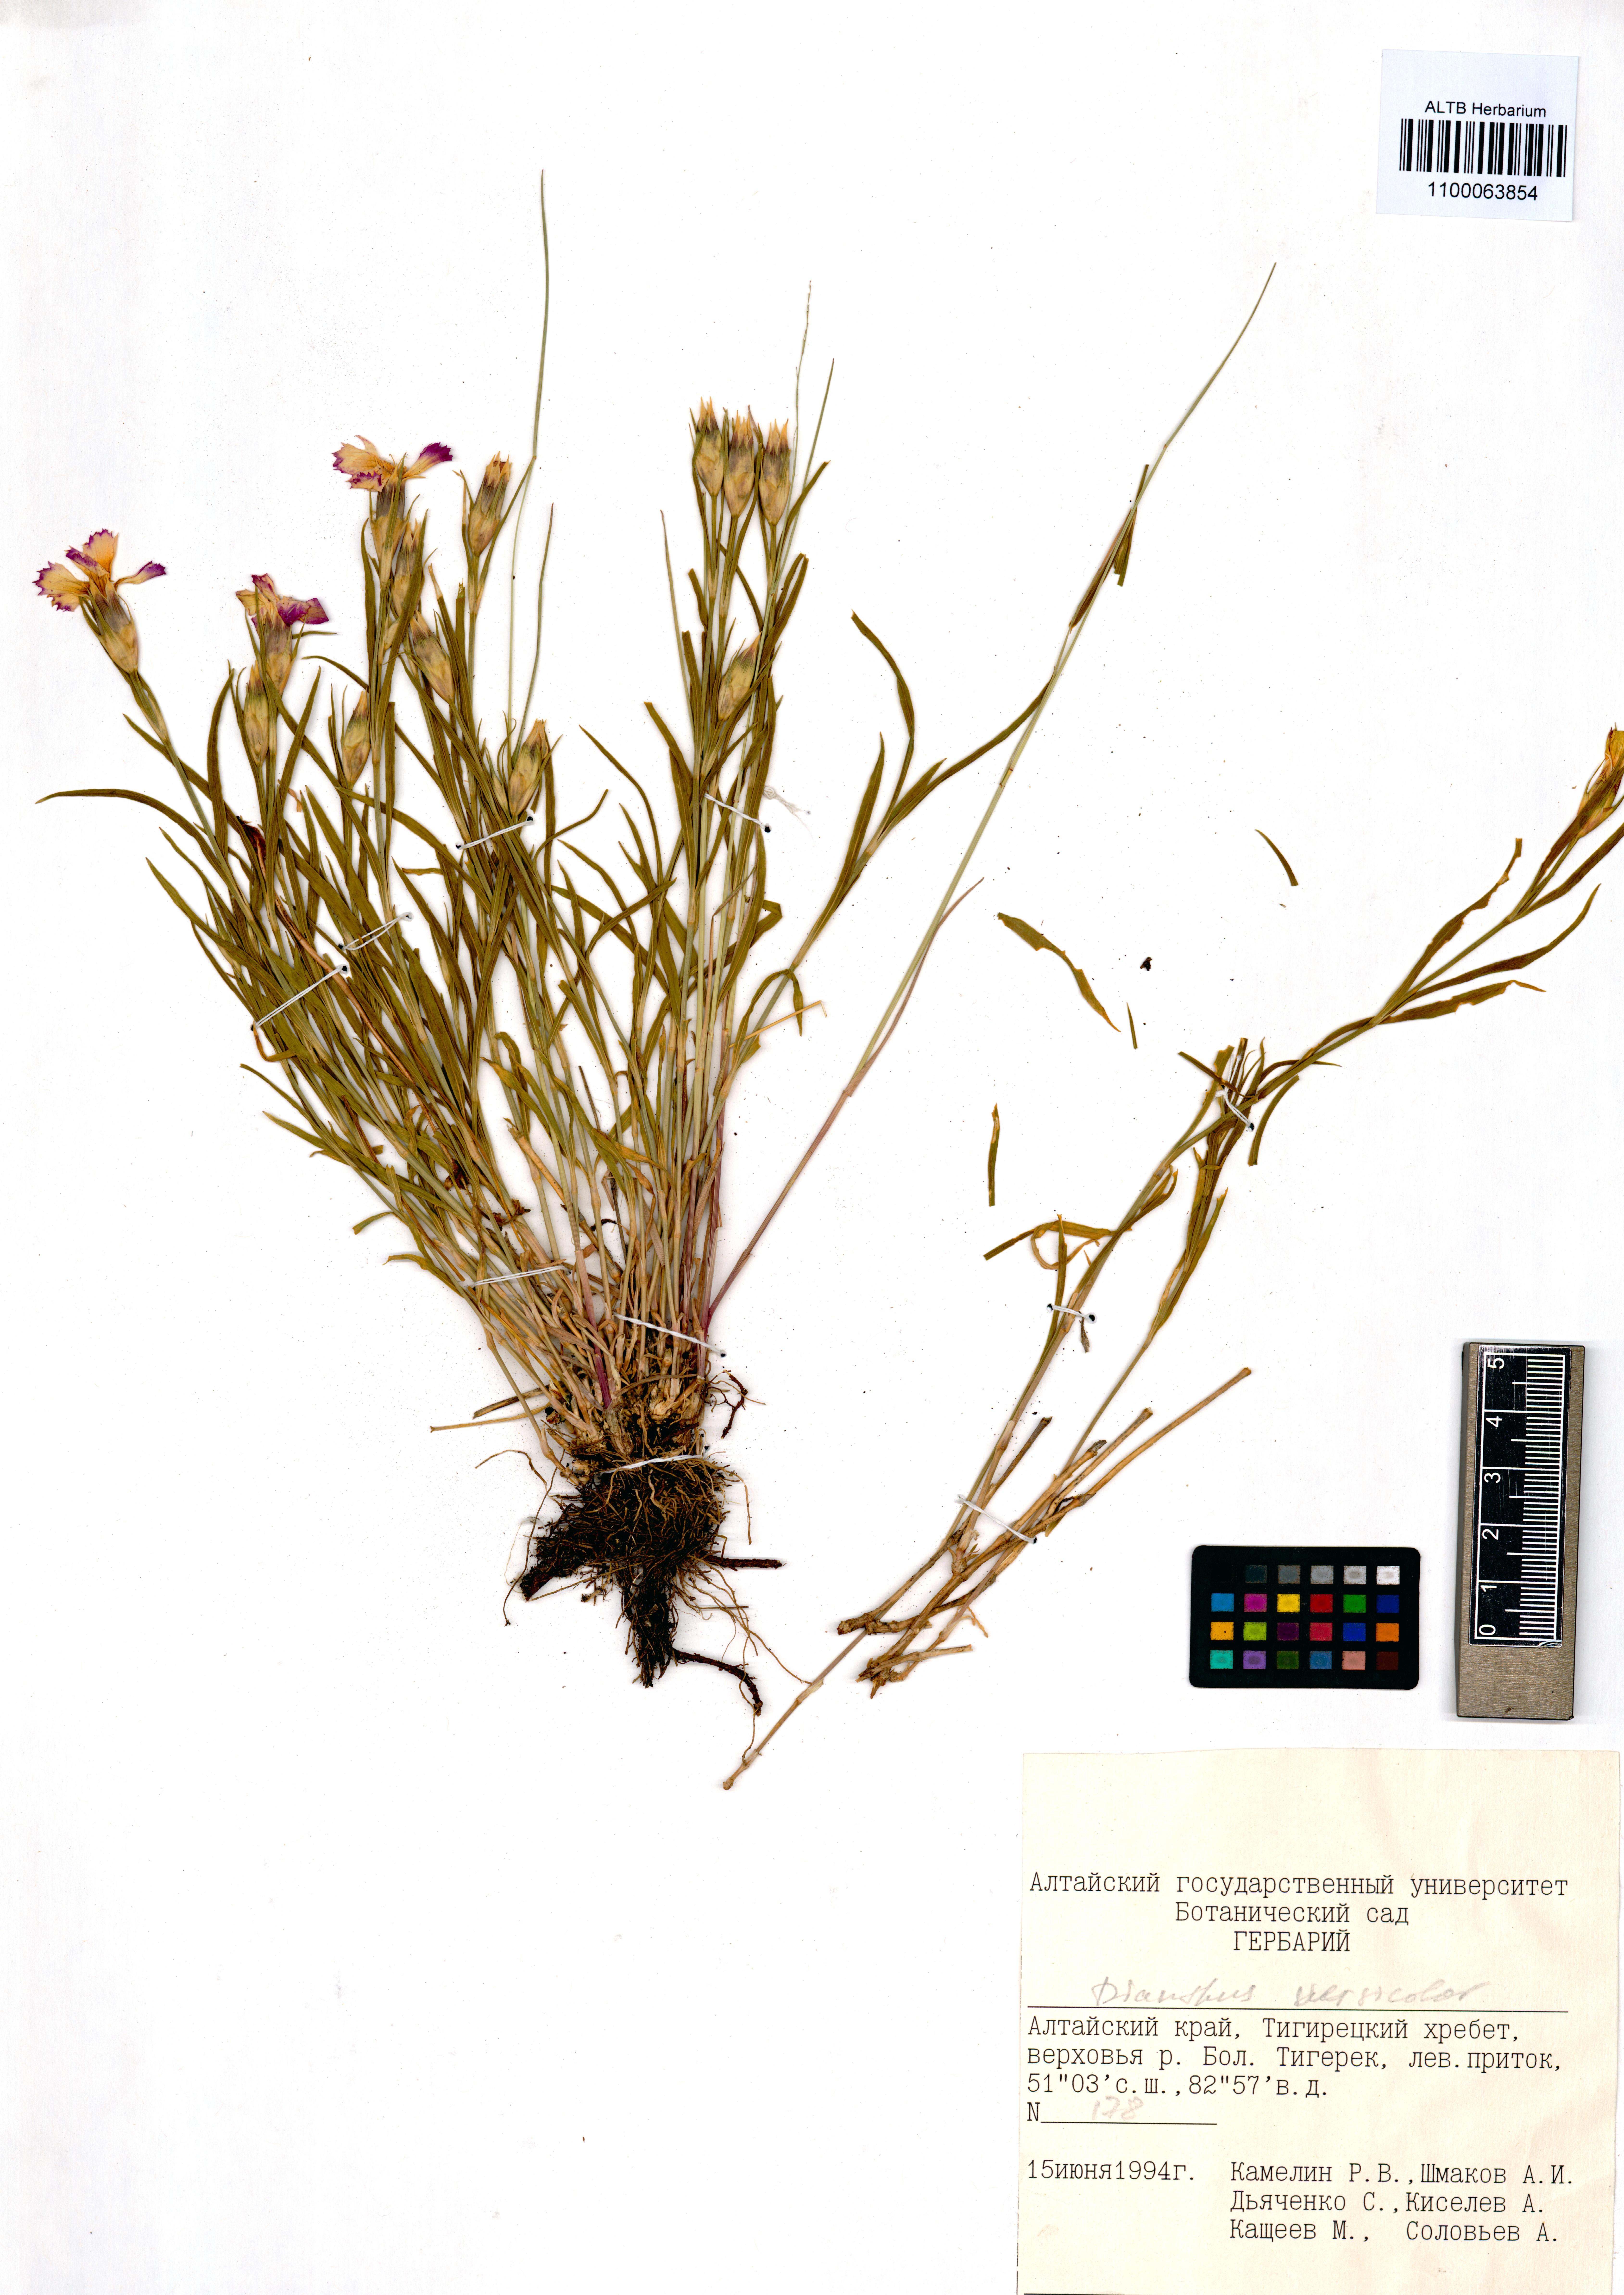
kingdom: Plantae
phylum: Tracheophyta
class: Magnoliopsida
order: Caryophyllales
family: Caryophyllaceae
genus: Dianthus
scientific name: Dianthus chinensis
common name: Rainbow pink
